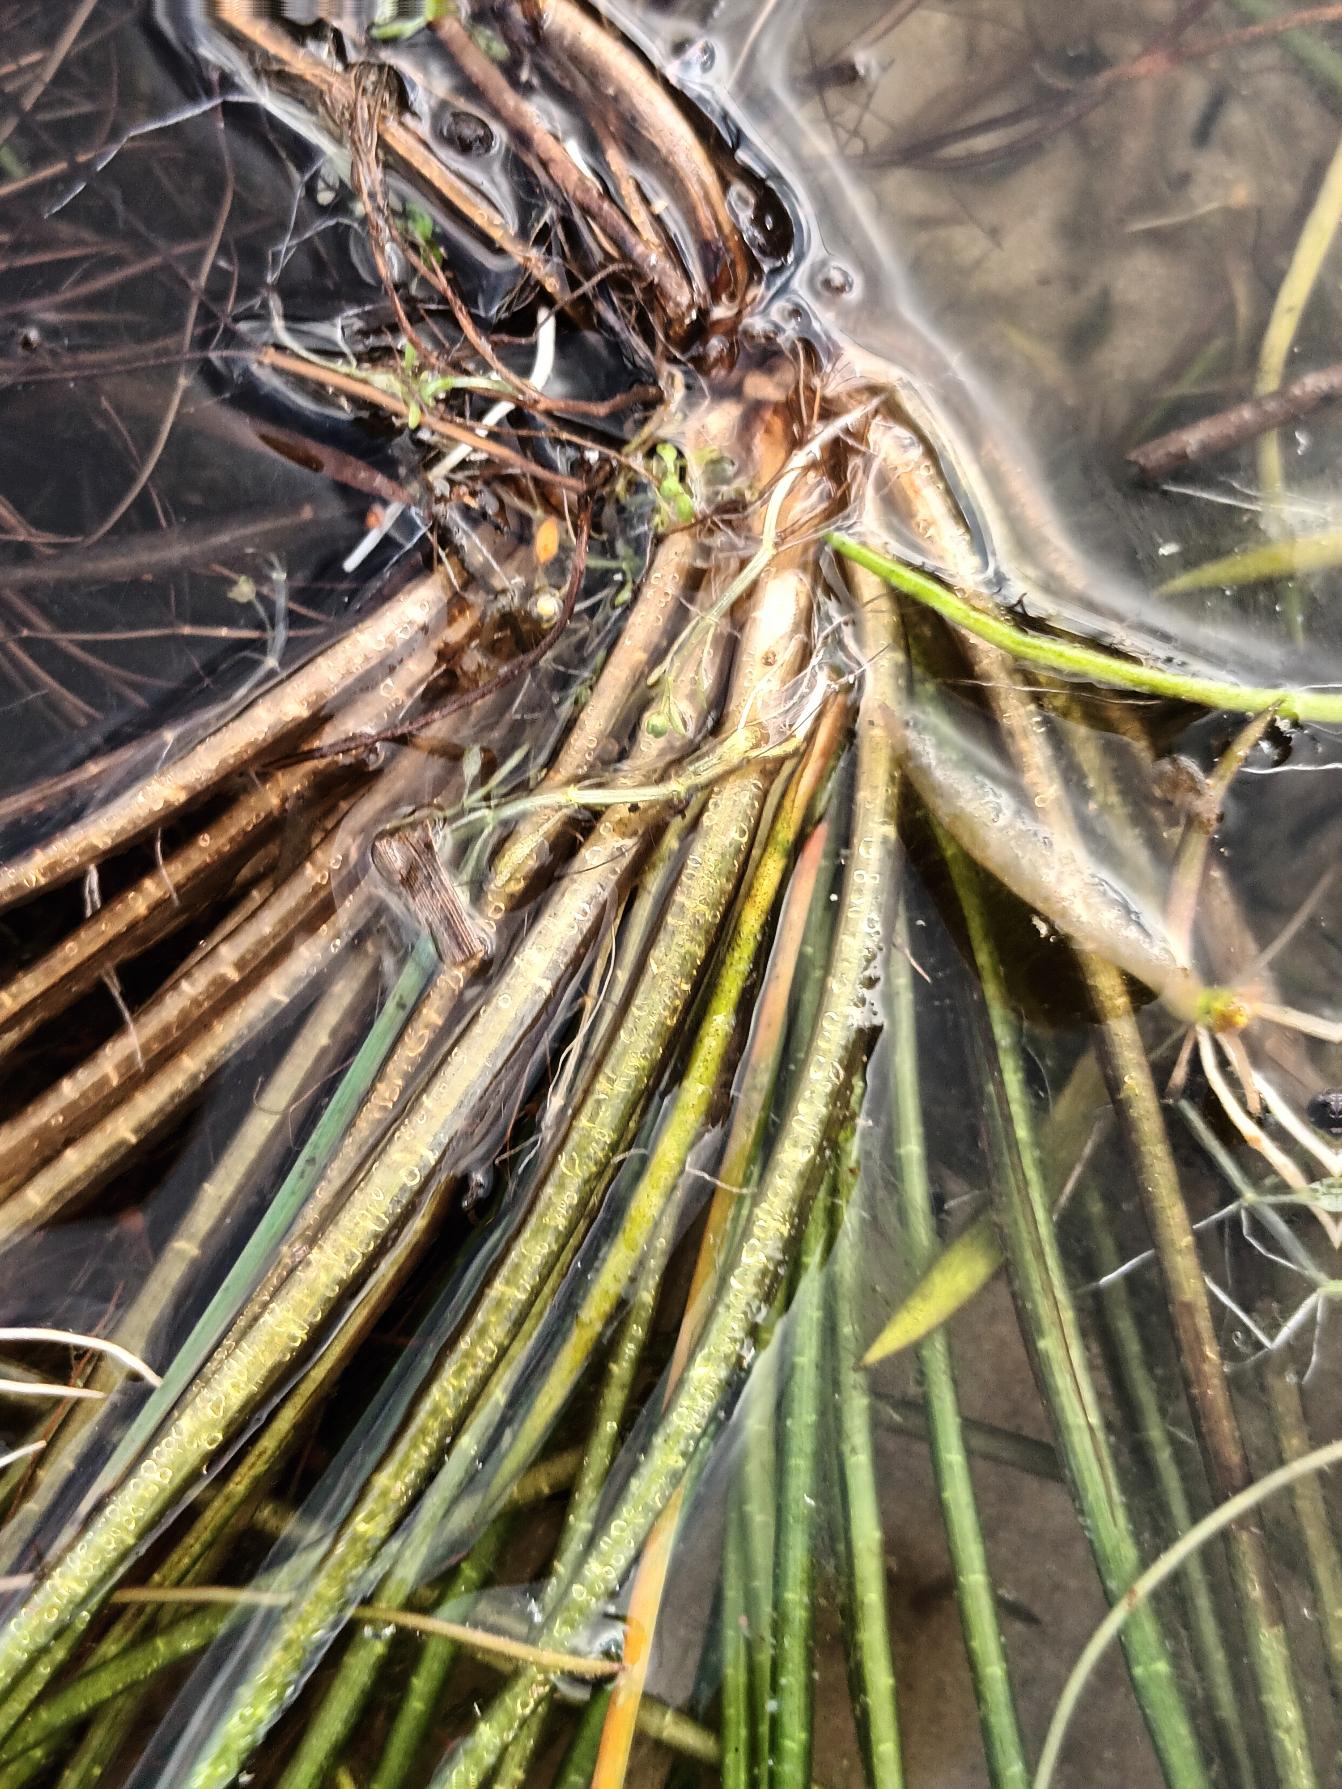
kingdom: Plantae
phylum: Tracheophyta
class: Lycopodiopsida
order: Isoetales
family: Isoetaceae
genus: Isoetes
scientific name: Isoetes lacustris
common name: Sortgrøn brasenføde
